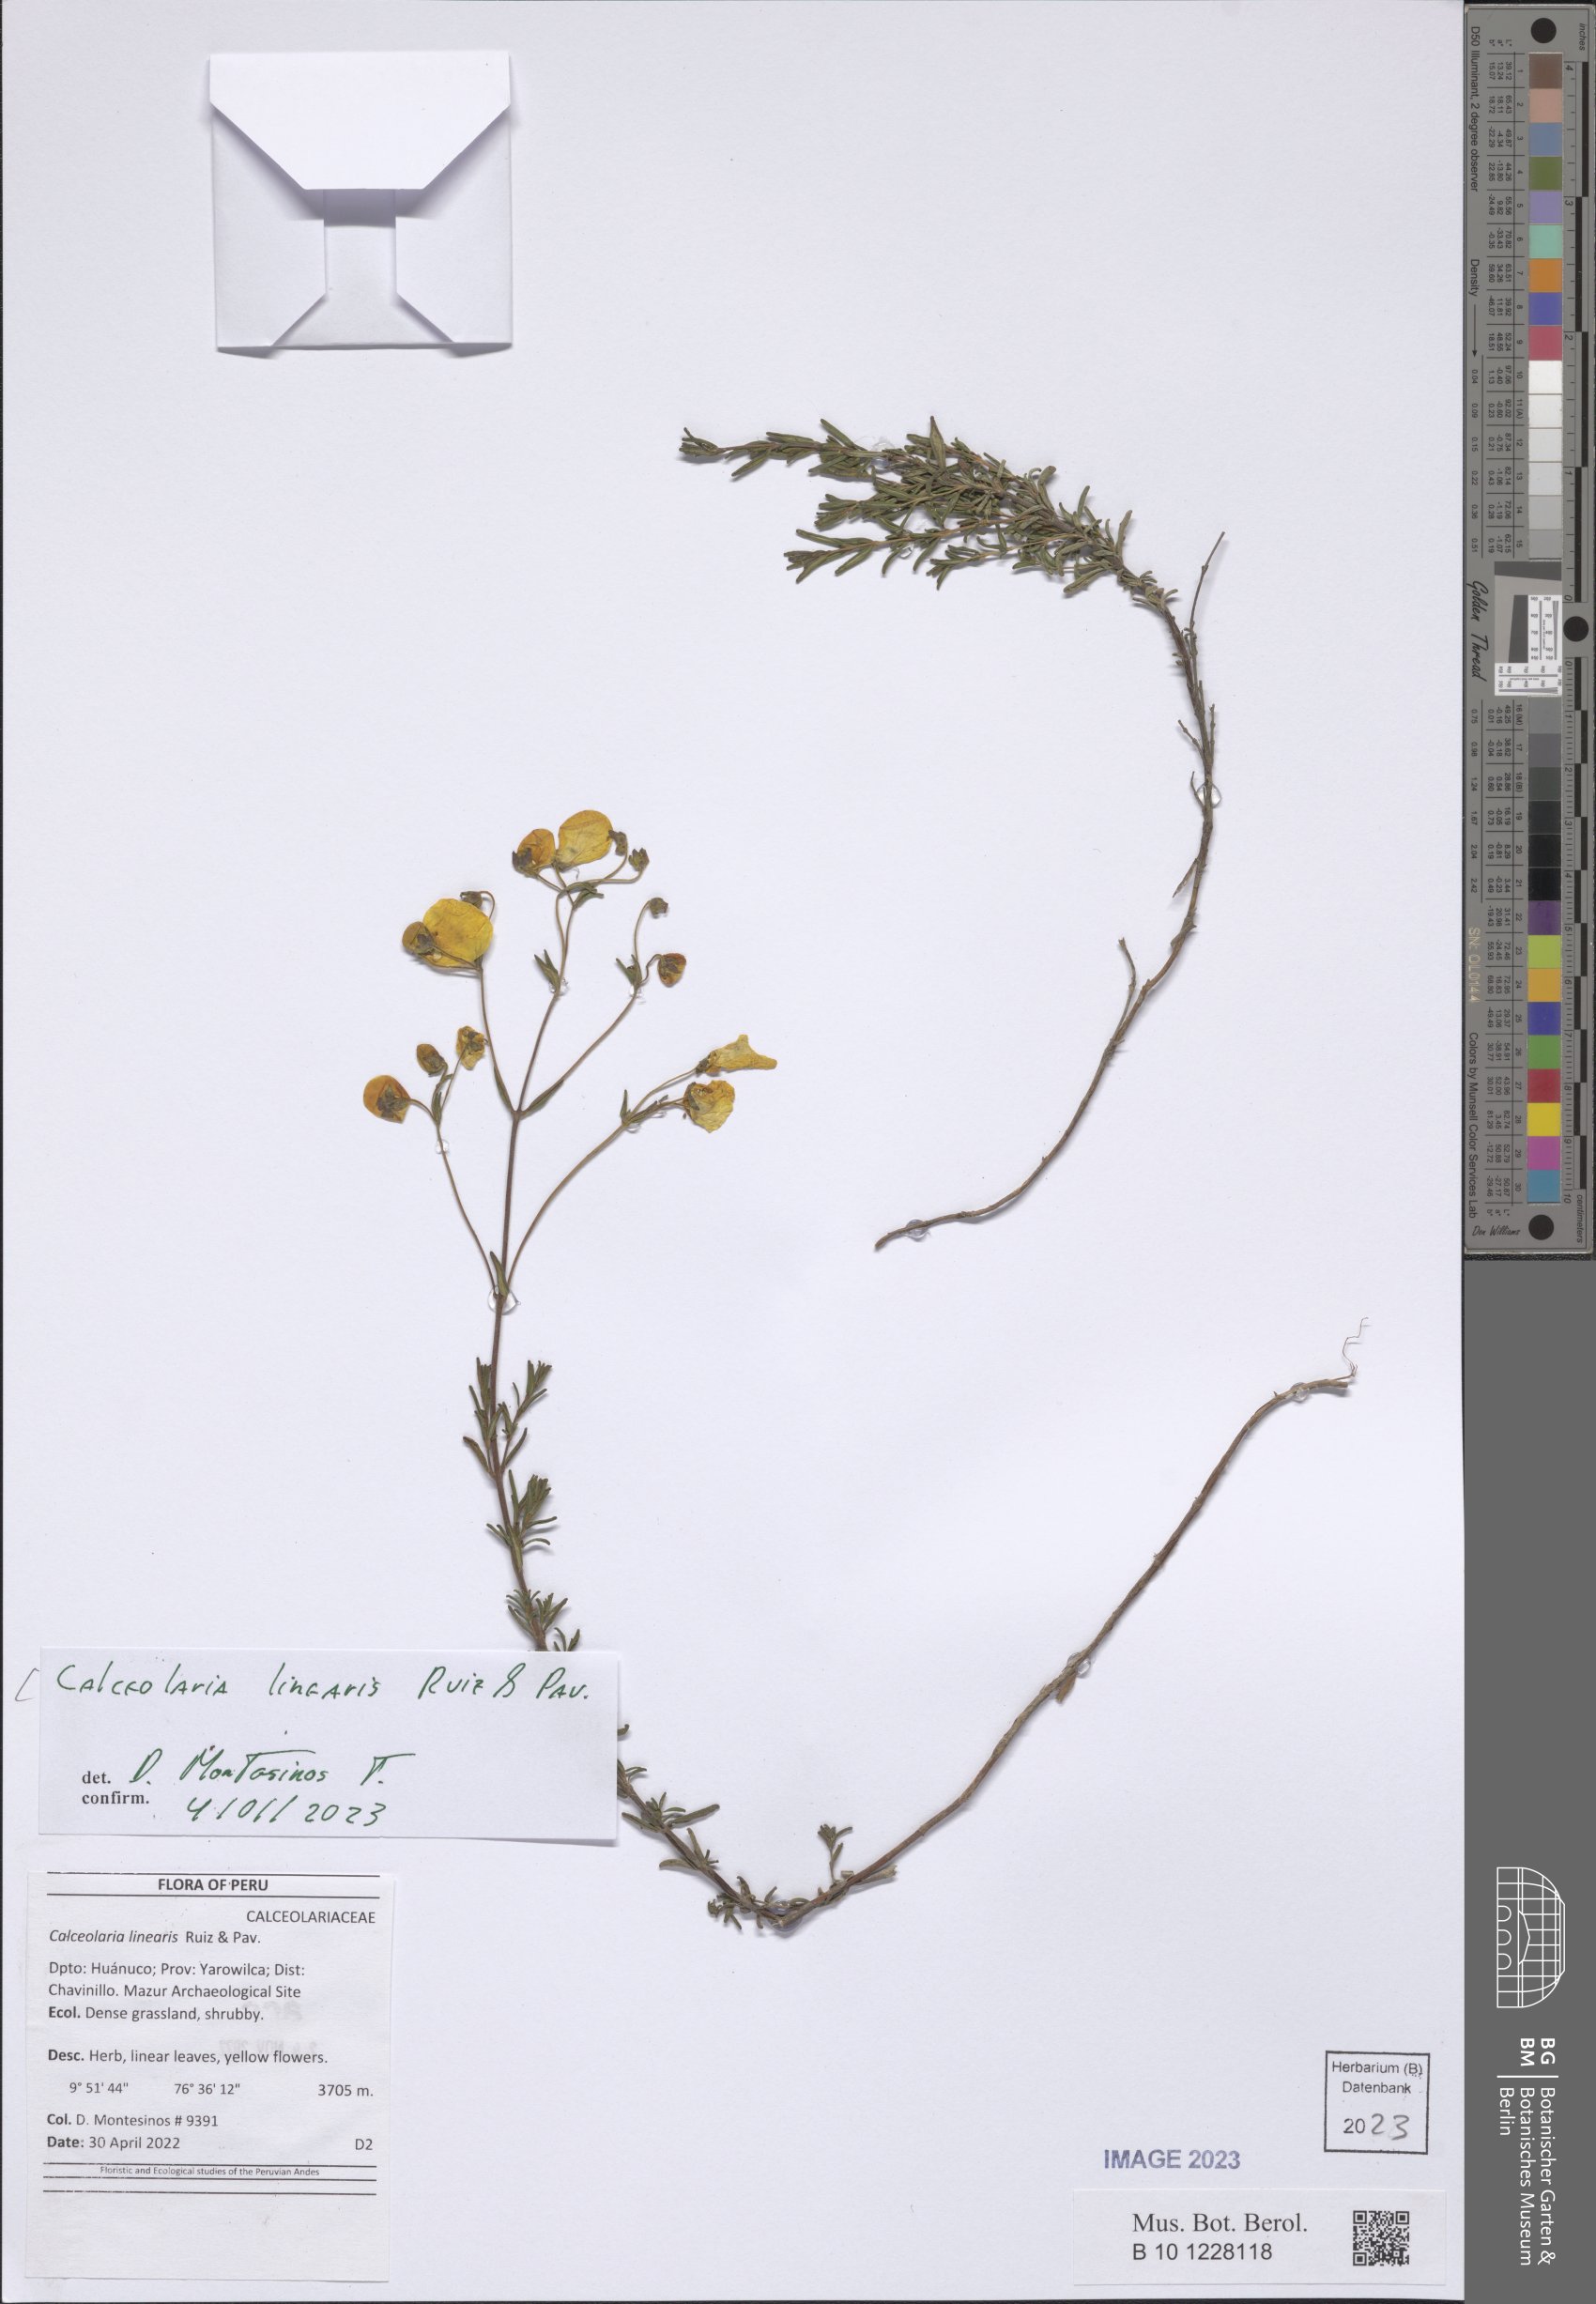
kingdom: Plantae
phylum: Tracheophyta
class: Magnoliopsida
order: Lamiales
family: Calceolariaceae
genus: Calceolaria
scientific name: Calceolaria linearis
